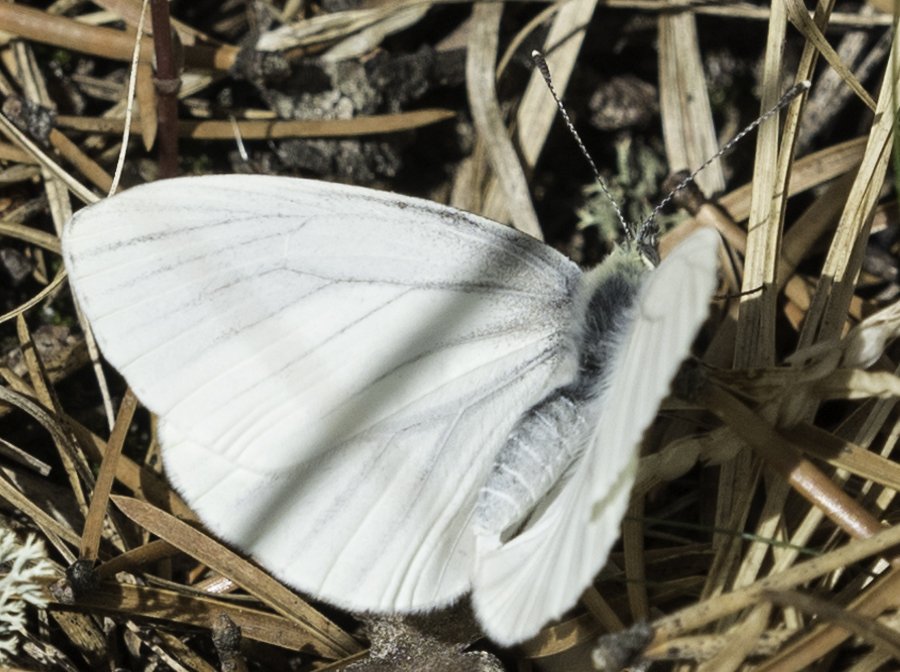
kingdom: Animalia
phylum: Arthropoda
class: Insecta
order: Lepidoptera
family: Pieridae
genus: Pieris
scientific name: Pieris oleracea
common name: Mustard White
